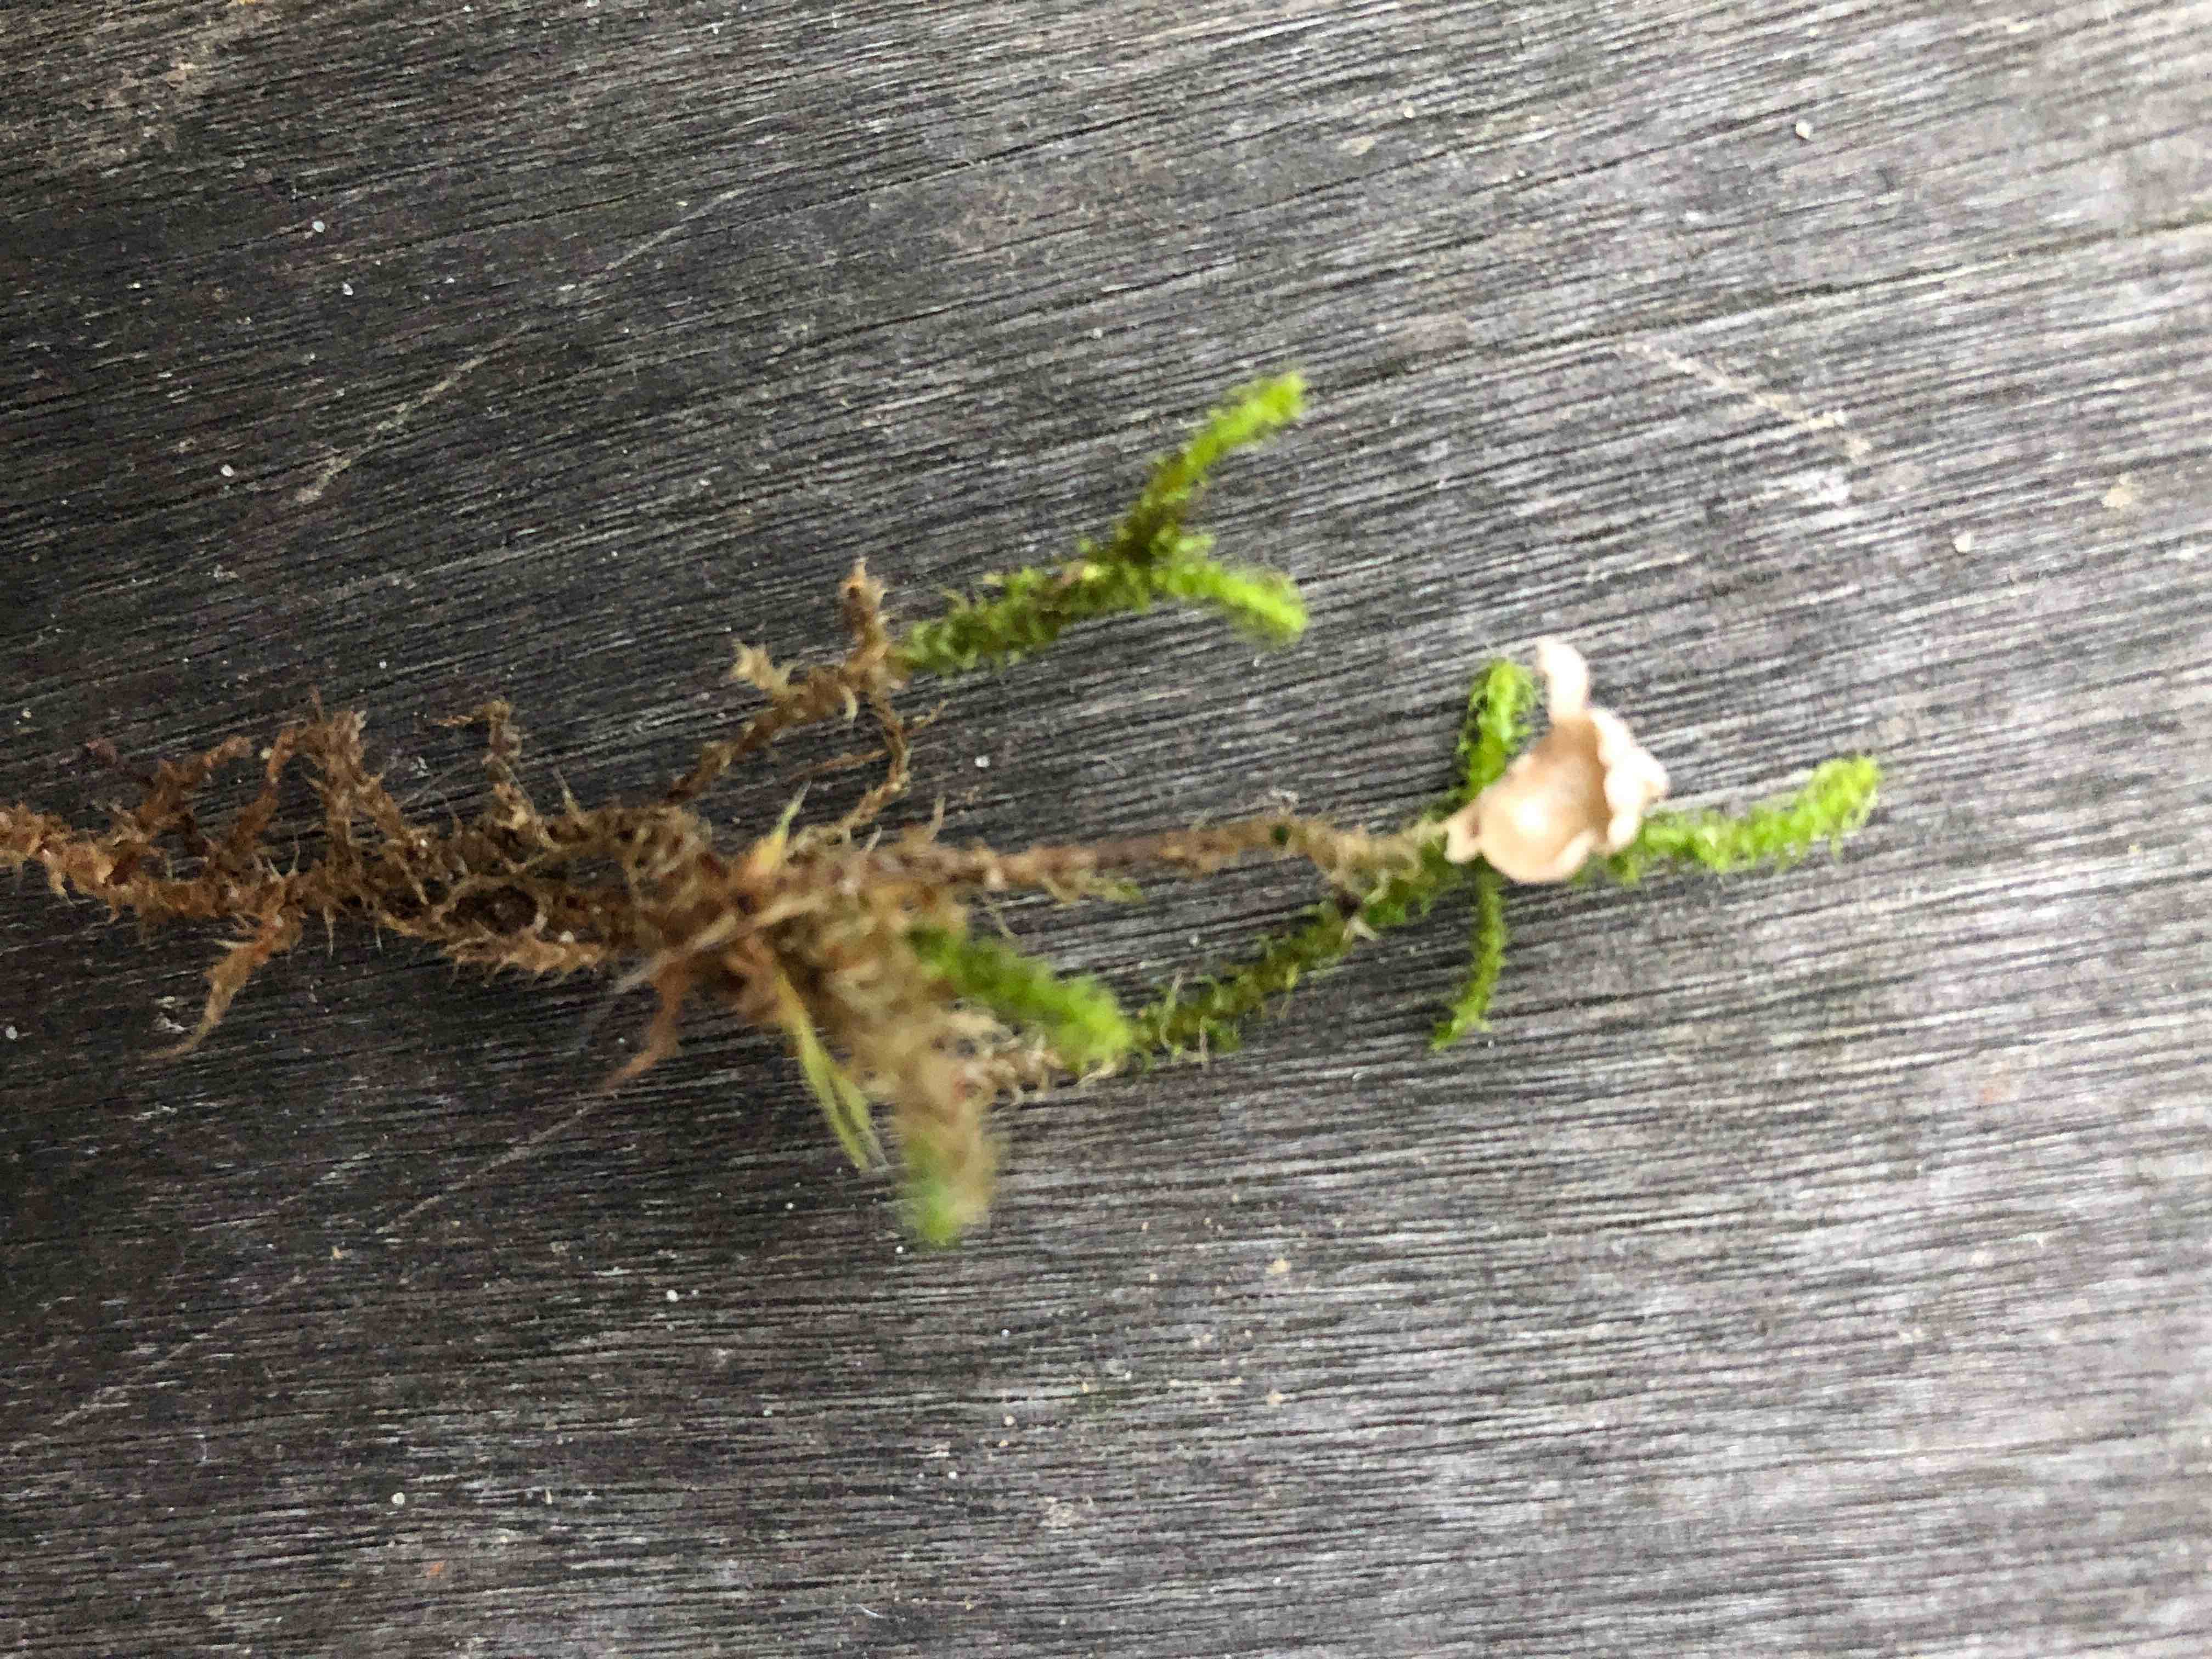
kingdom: Fungi
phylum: Basidiomycota
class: Agaricomycetes
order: Agaricales
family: Hygrophoraceae
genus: Arrhenia
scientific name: Arrhenia retiruga
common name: lille fontænehat
